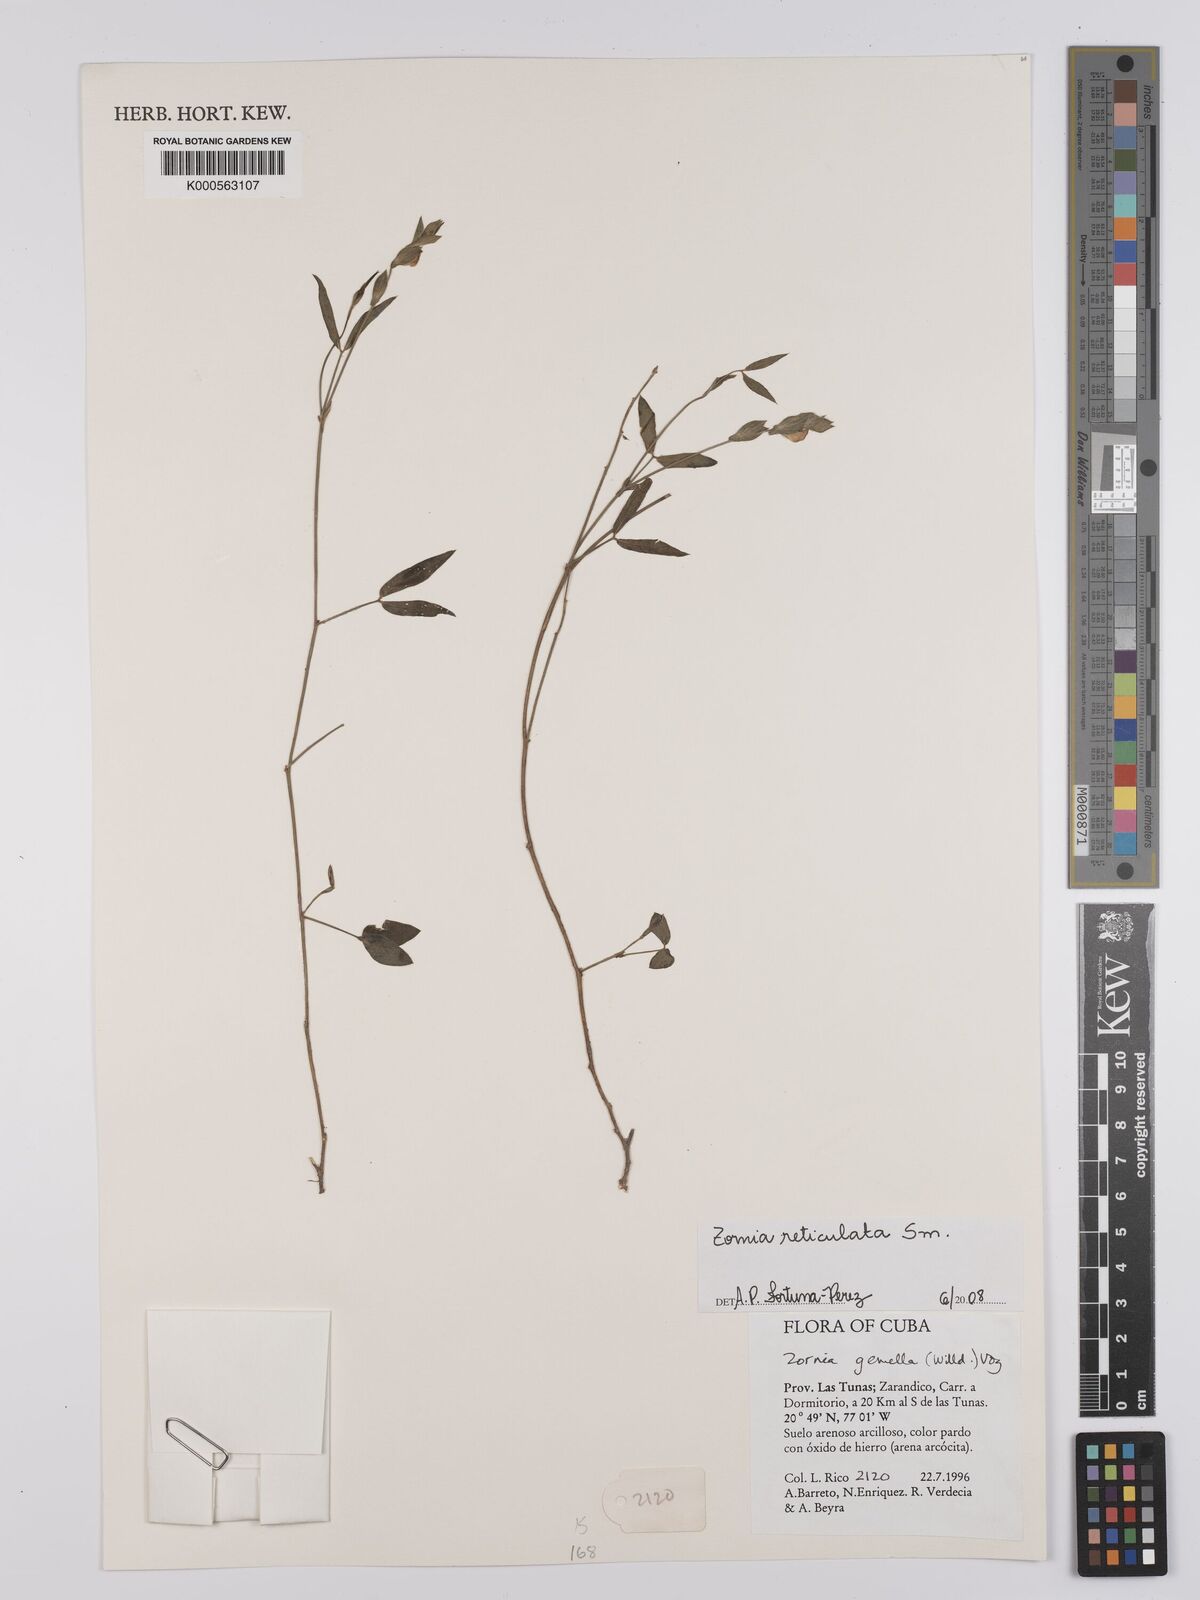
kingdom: Plantae
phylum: Tracheophyta
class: Magnoliopsida
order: Fabales
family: Fabaceae
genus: Zornia
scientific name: Zornia reticulata
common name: Reticulate viperina
